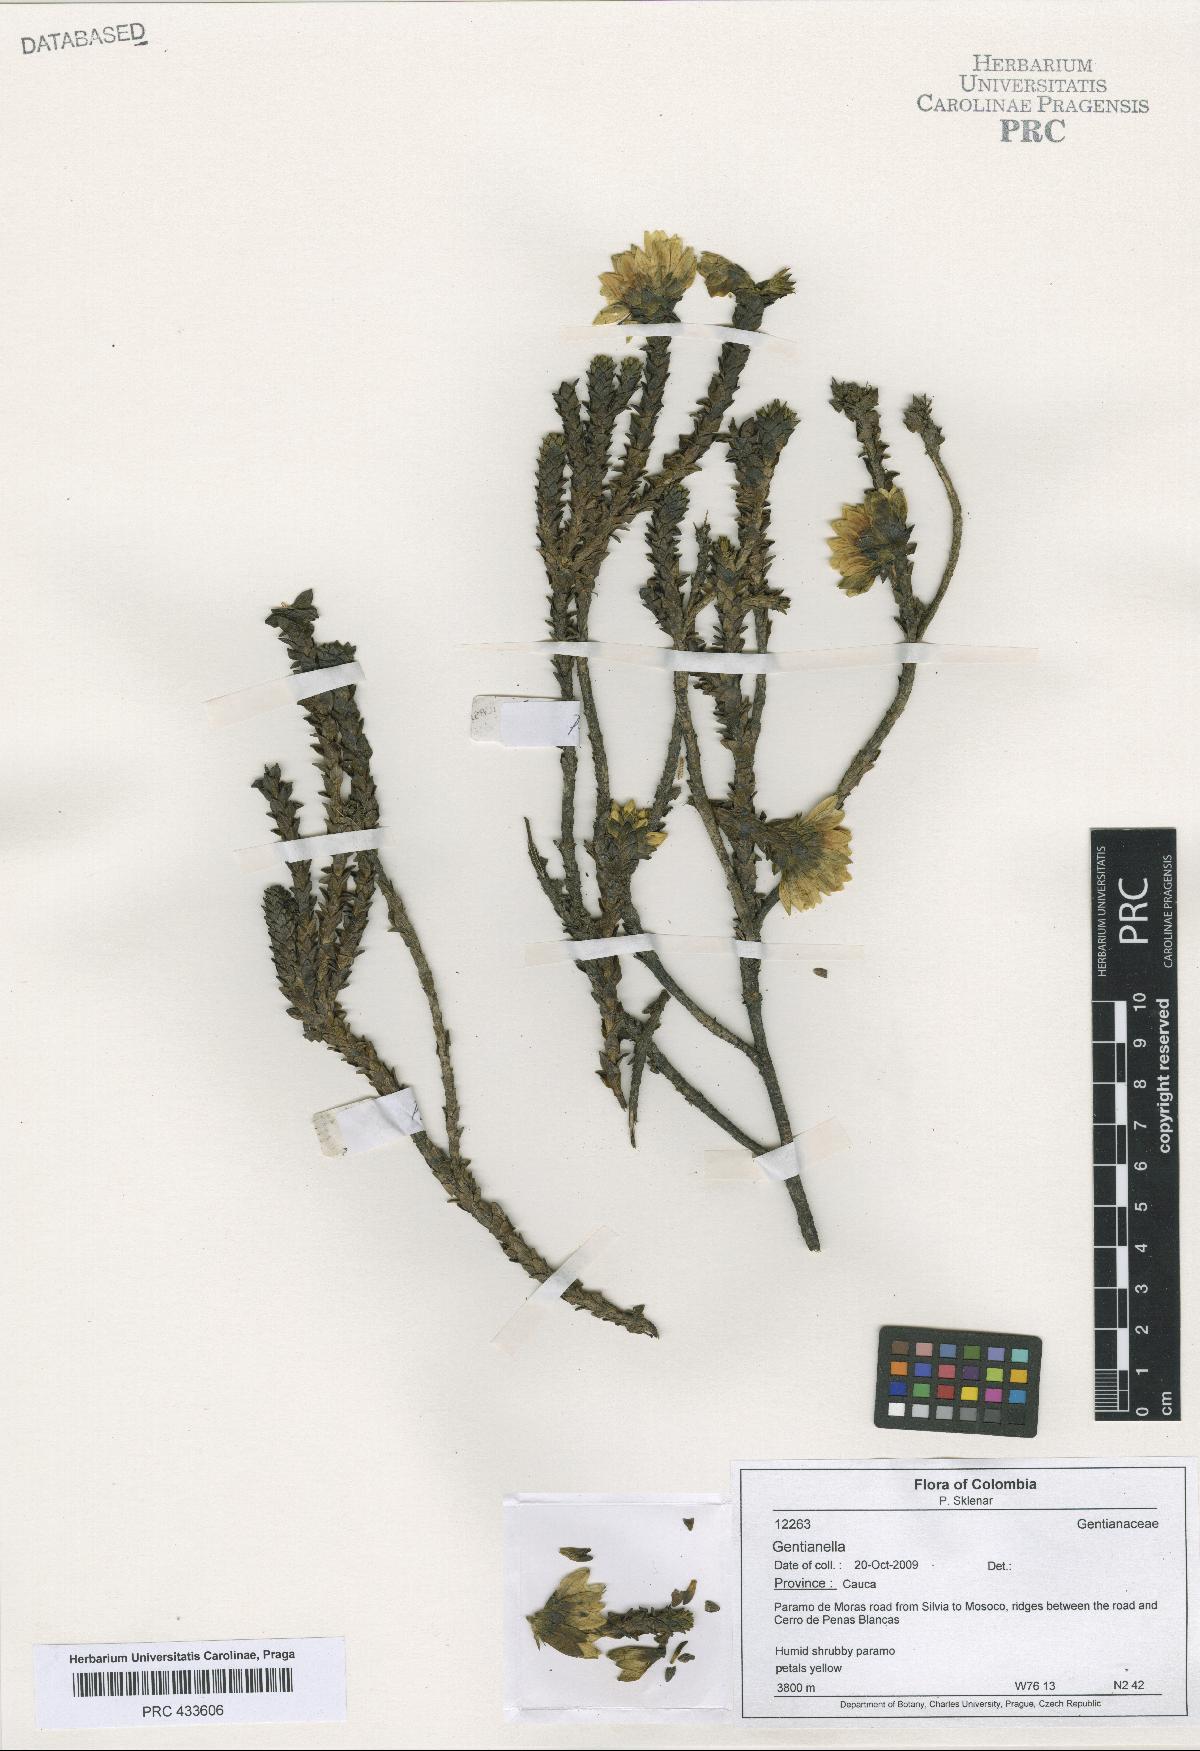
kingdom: Plantae
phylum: Tracheophyta
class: Magnoliopsida
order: Gentianales
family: Gentianaceae
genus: Gentianella
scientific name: Gentianella
